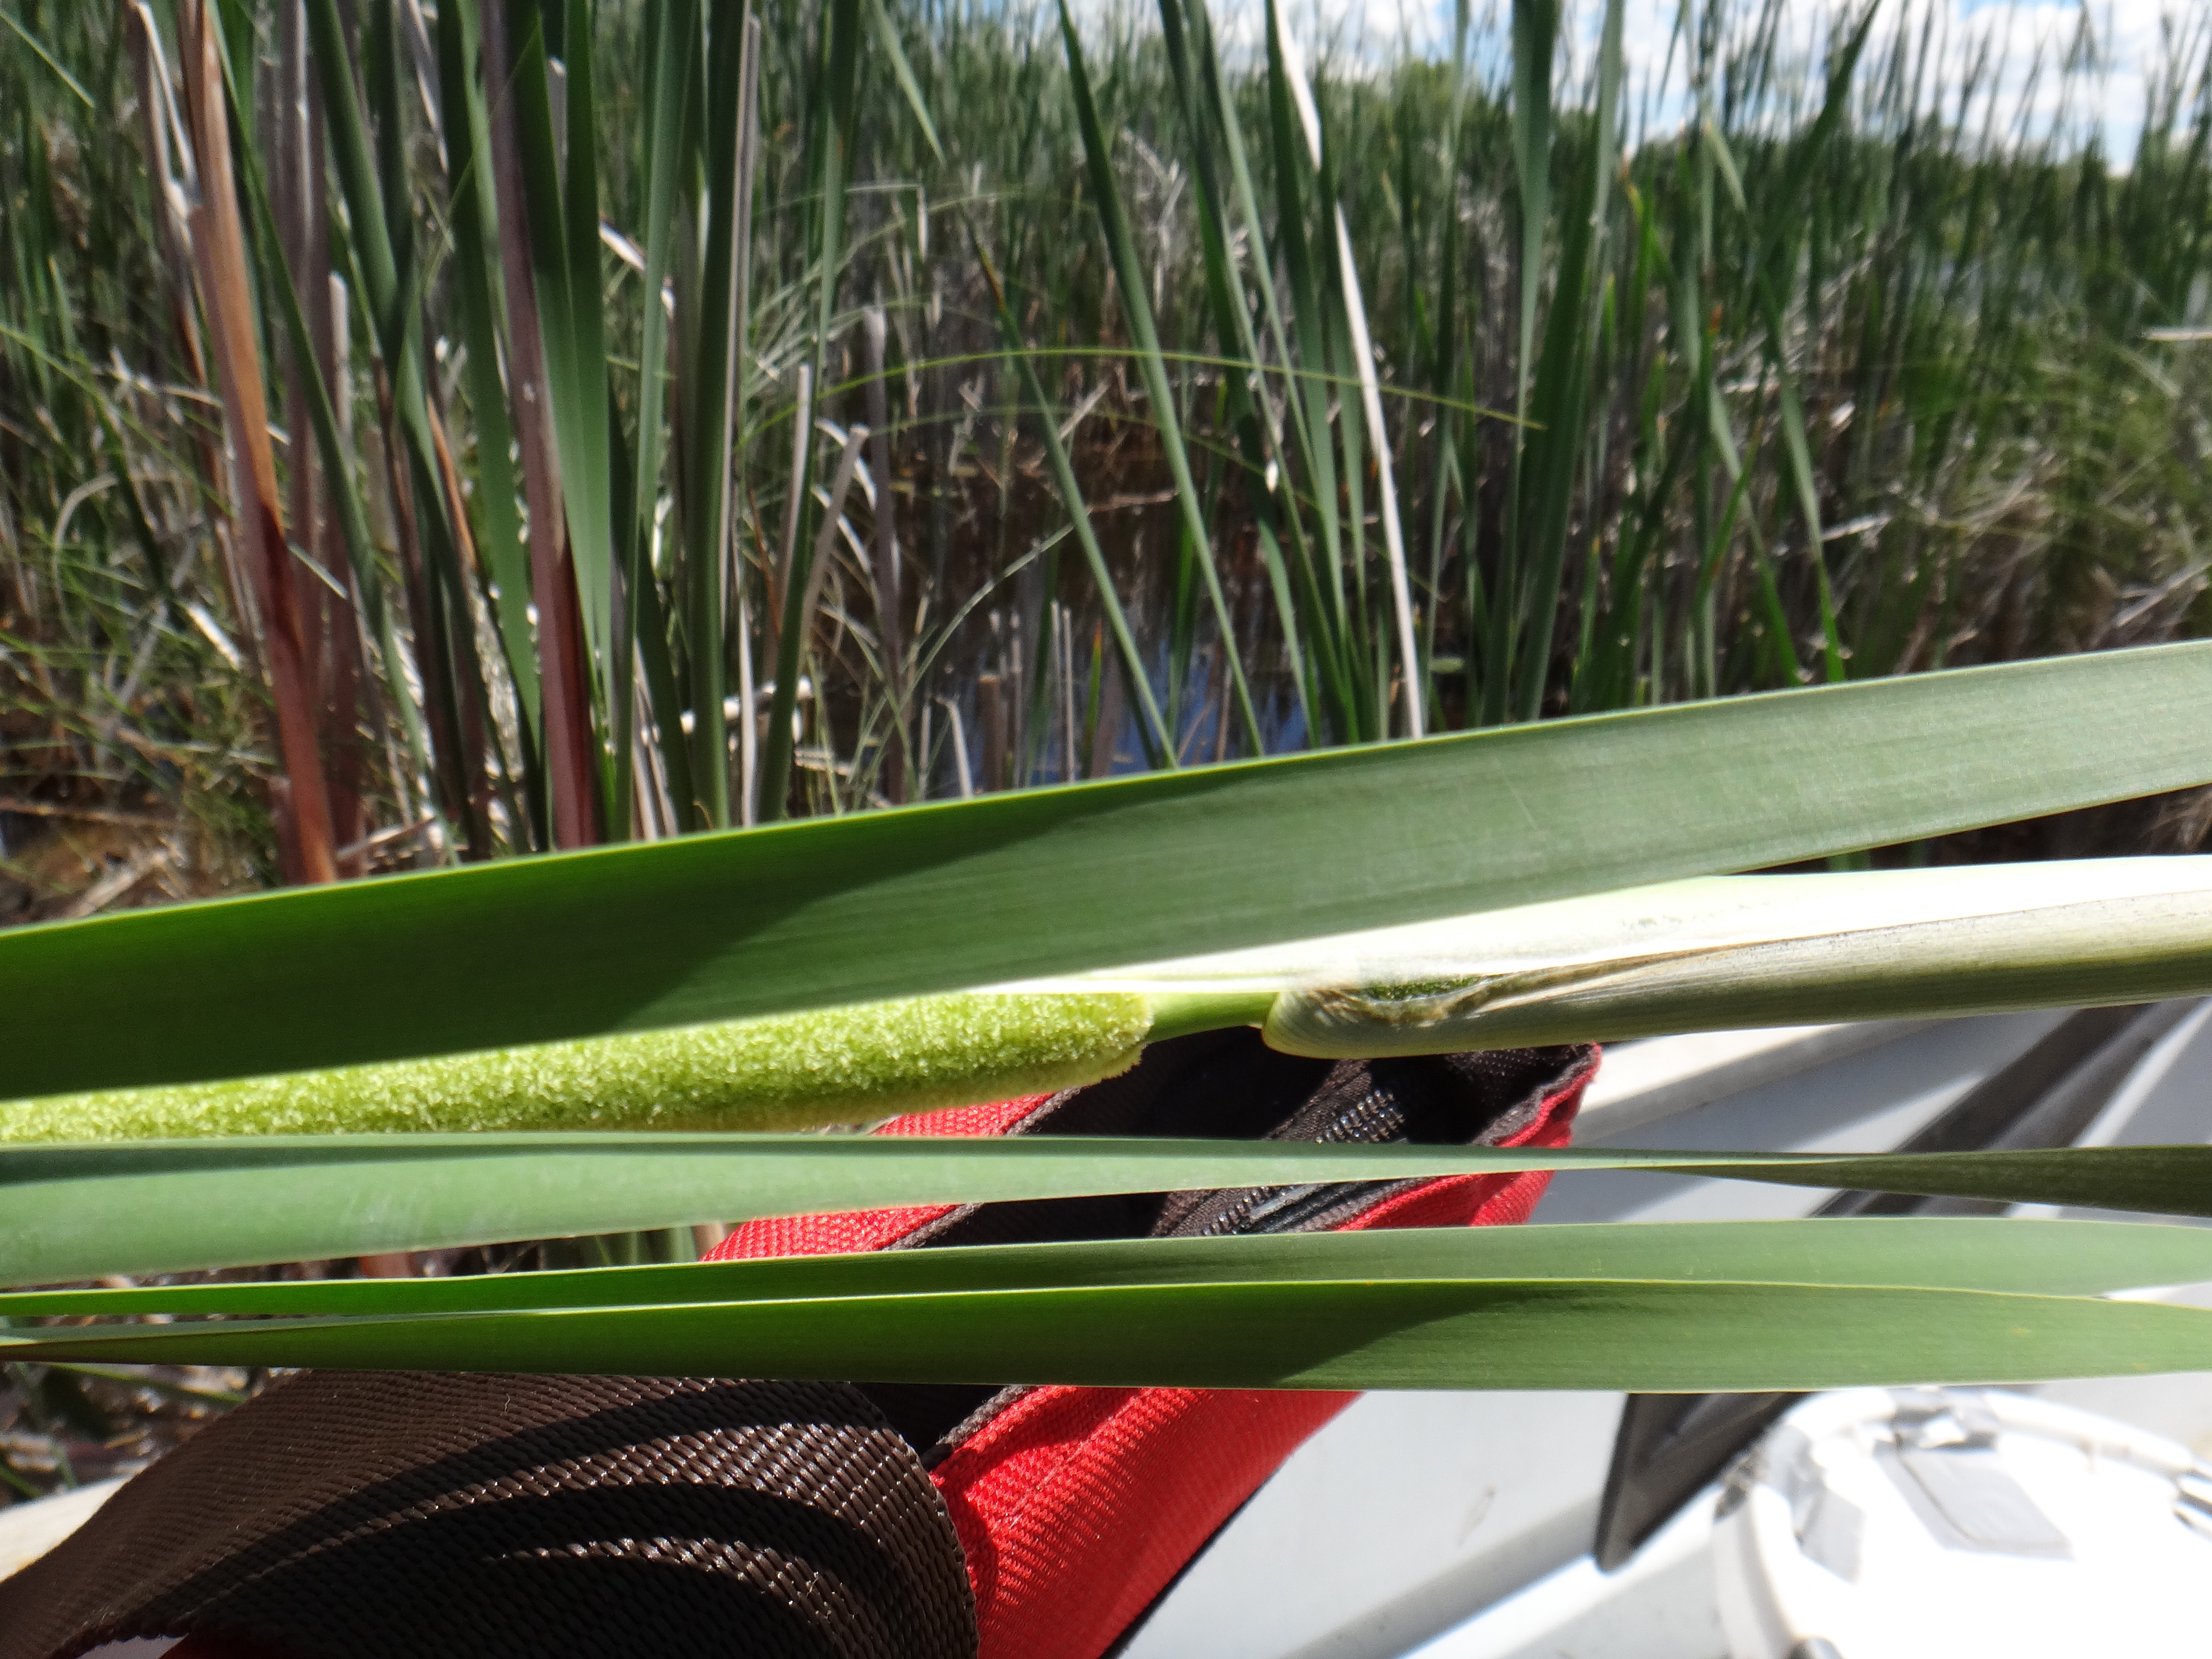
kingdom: Plantae
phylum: Tracheophyta
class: Liliopsida
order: Poales
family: Typhaceae
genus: Typha
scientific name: Typha
